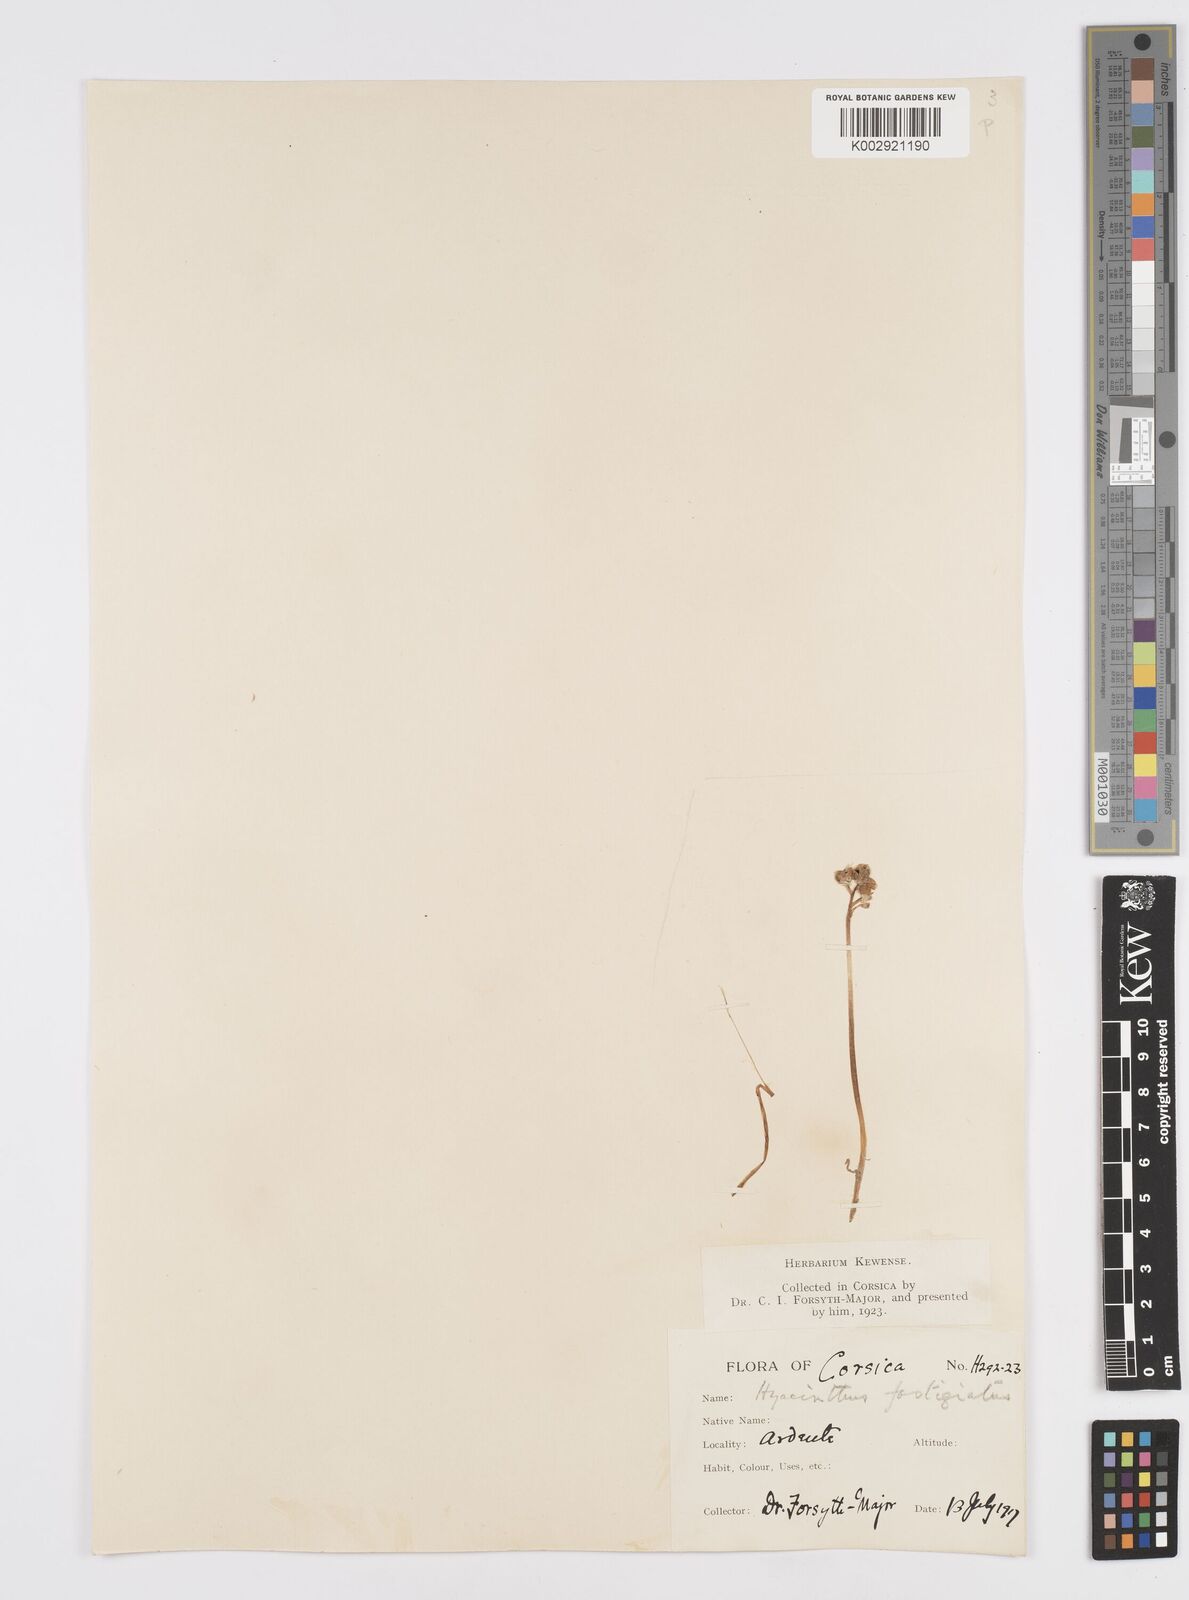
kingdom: Plantae
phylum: Tracheophyta
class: Liliopsida
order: Asparagales
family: Asparagaceae
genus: Brimeura
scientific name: Brimeura fastigiata
